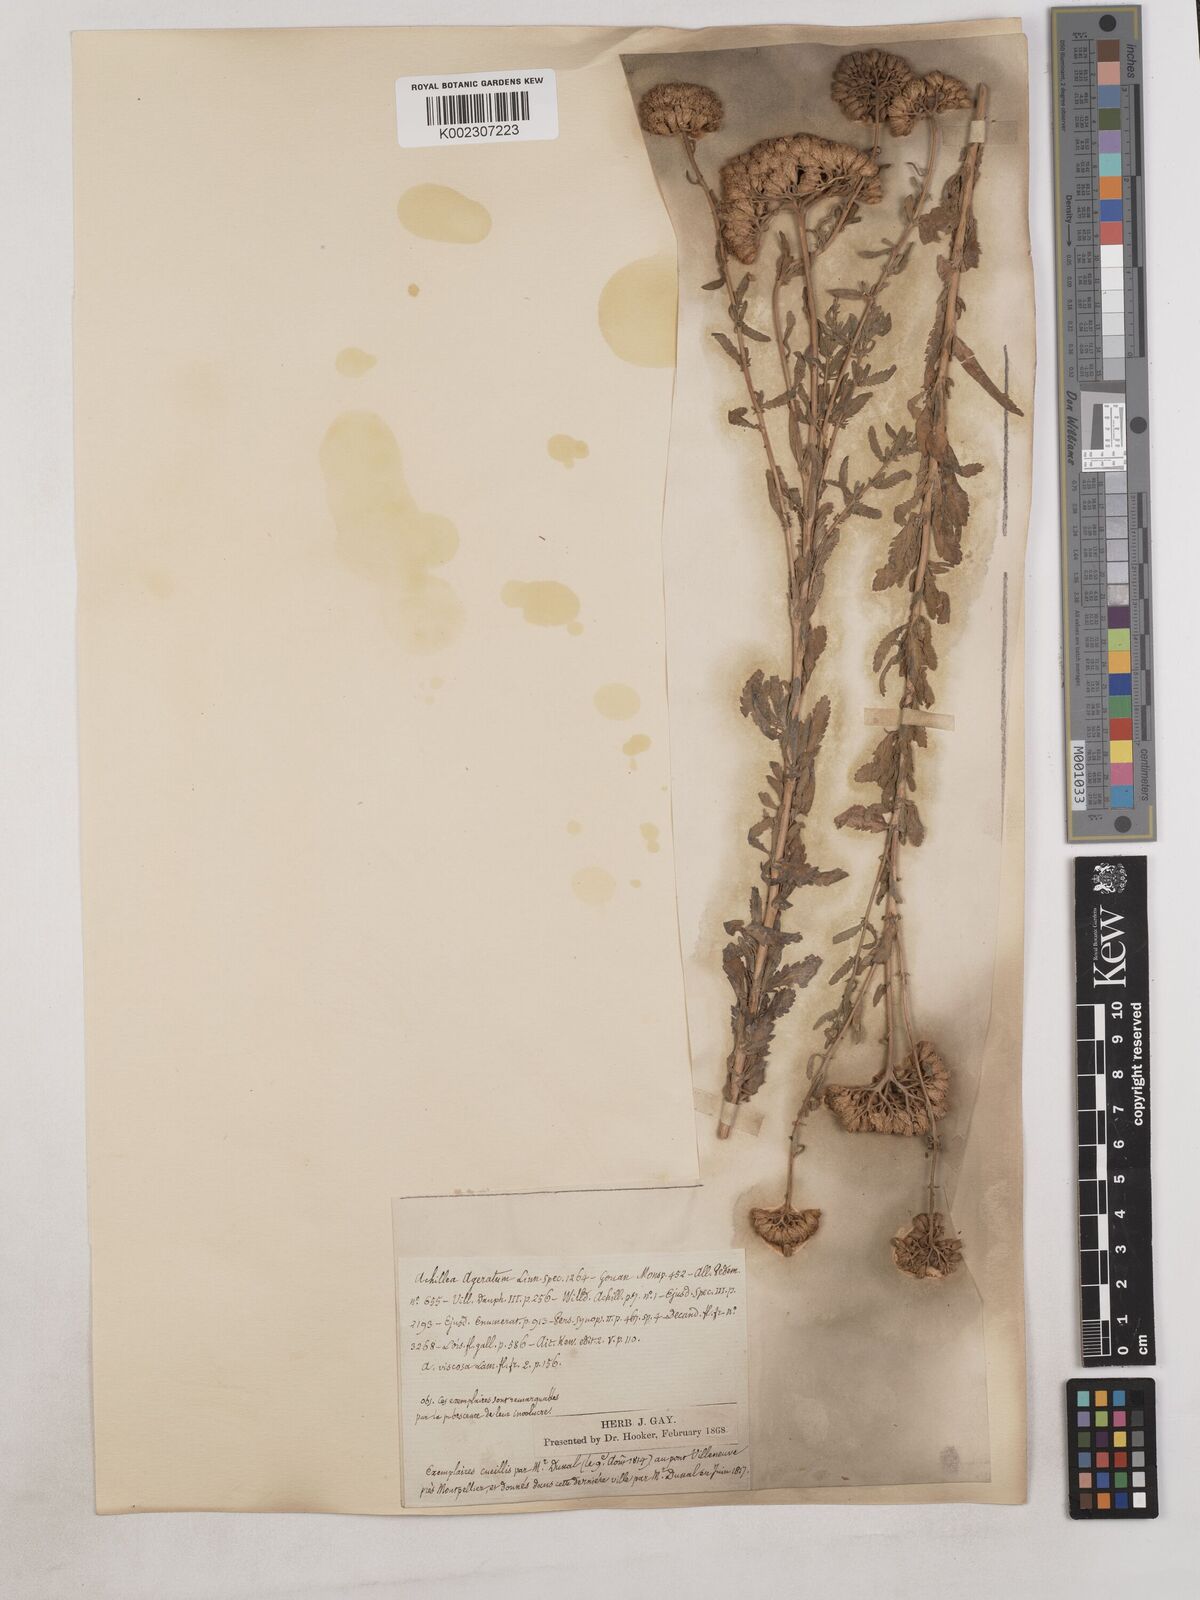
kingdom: Plantae
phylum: Tracheophyta
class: Magnoliopsida
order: Asterales
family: Asteraceae
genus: Achillea
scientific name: Achillea ageratum
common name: Sweet-nancy
